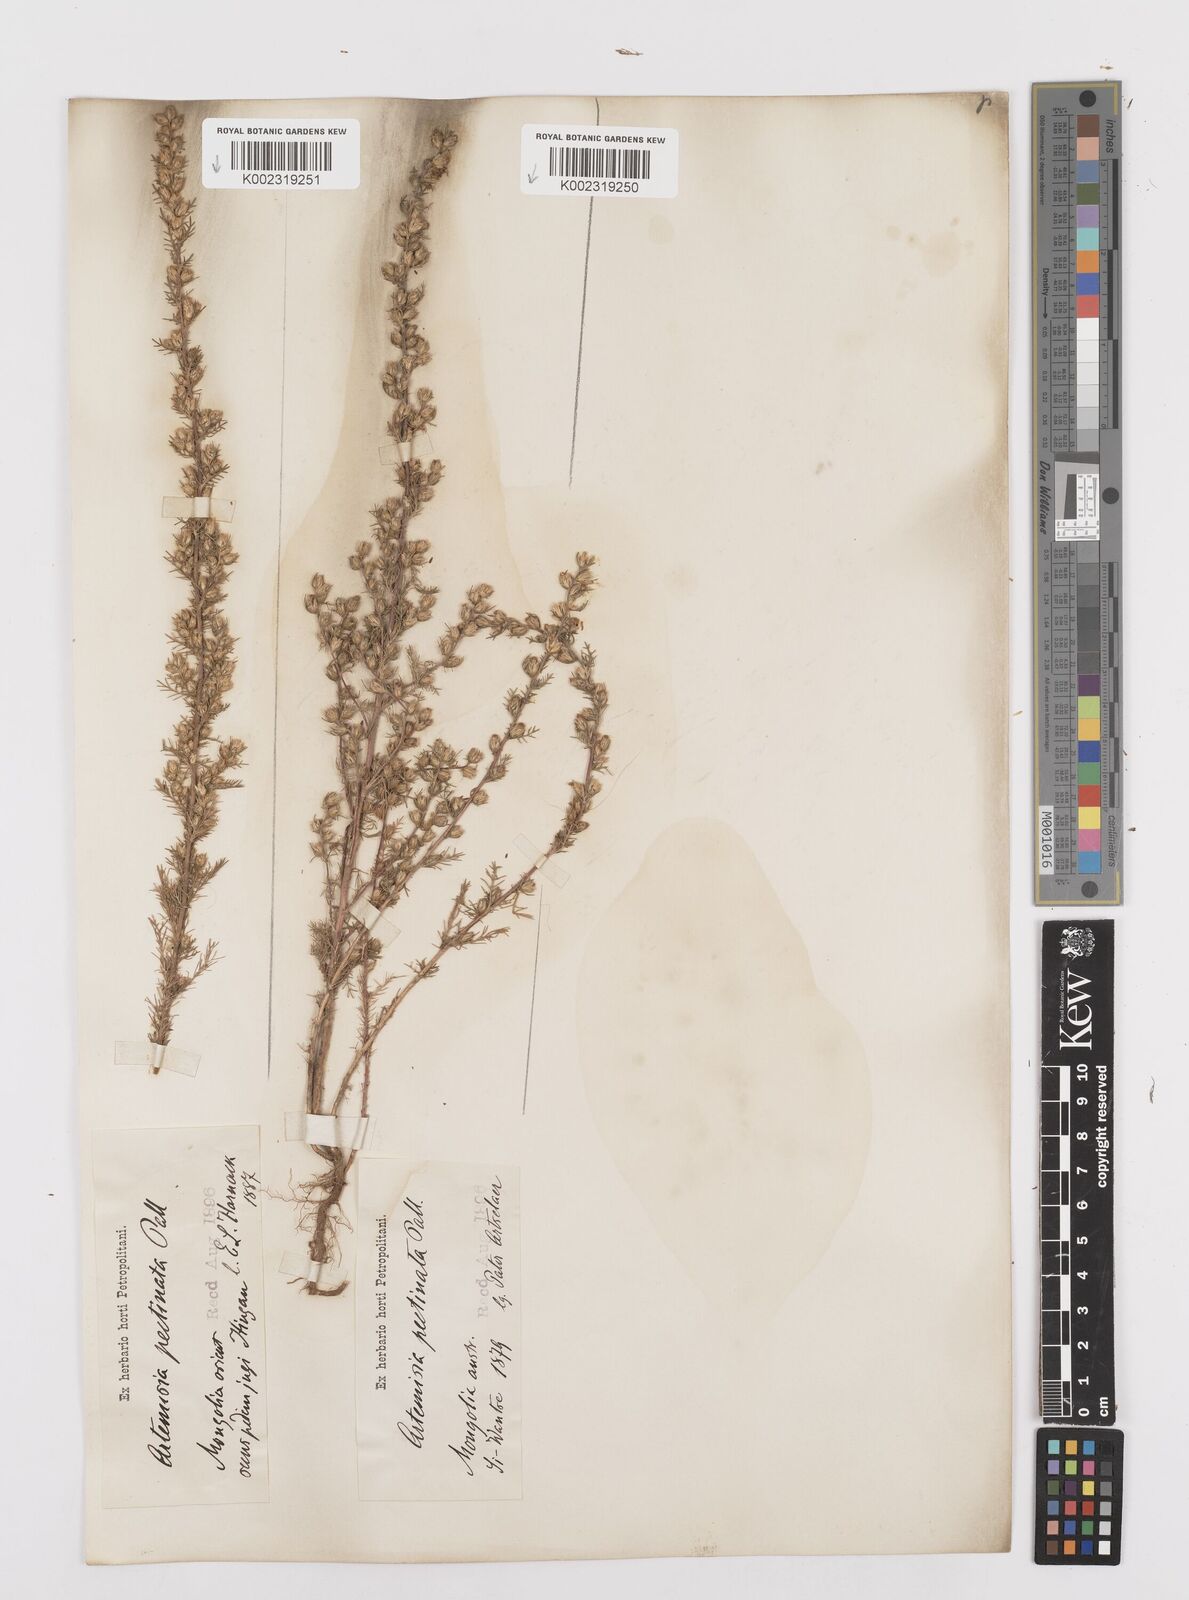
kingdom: Plantae
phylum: Tracheophyta
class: Magnoliopsida
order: Asterales
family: Asteraceae
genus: Neopallasia
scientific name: Neopallasia pectinata
